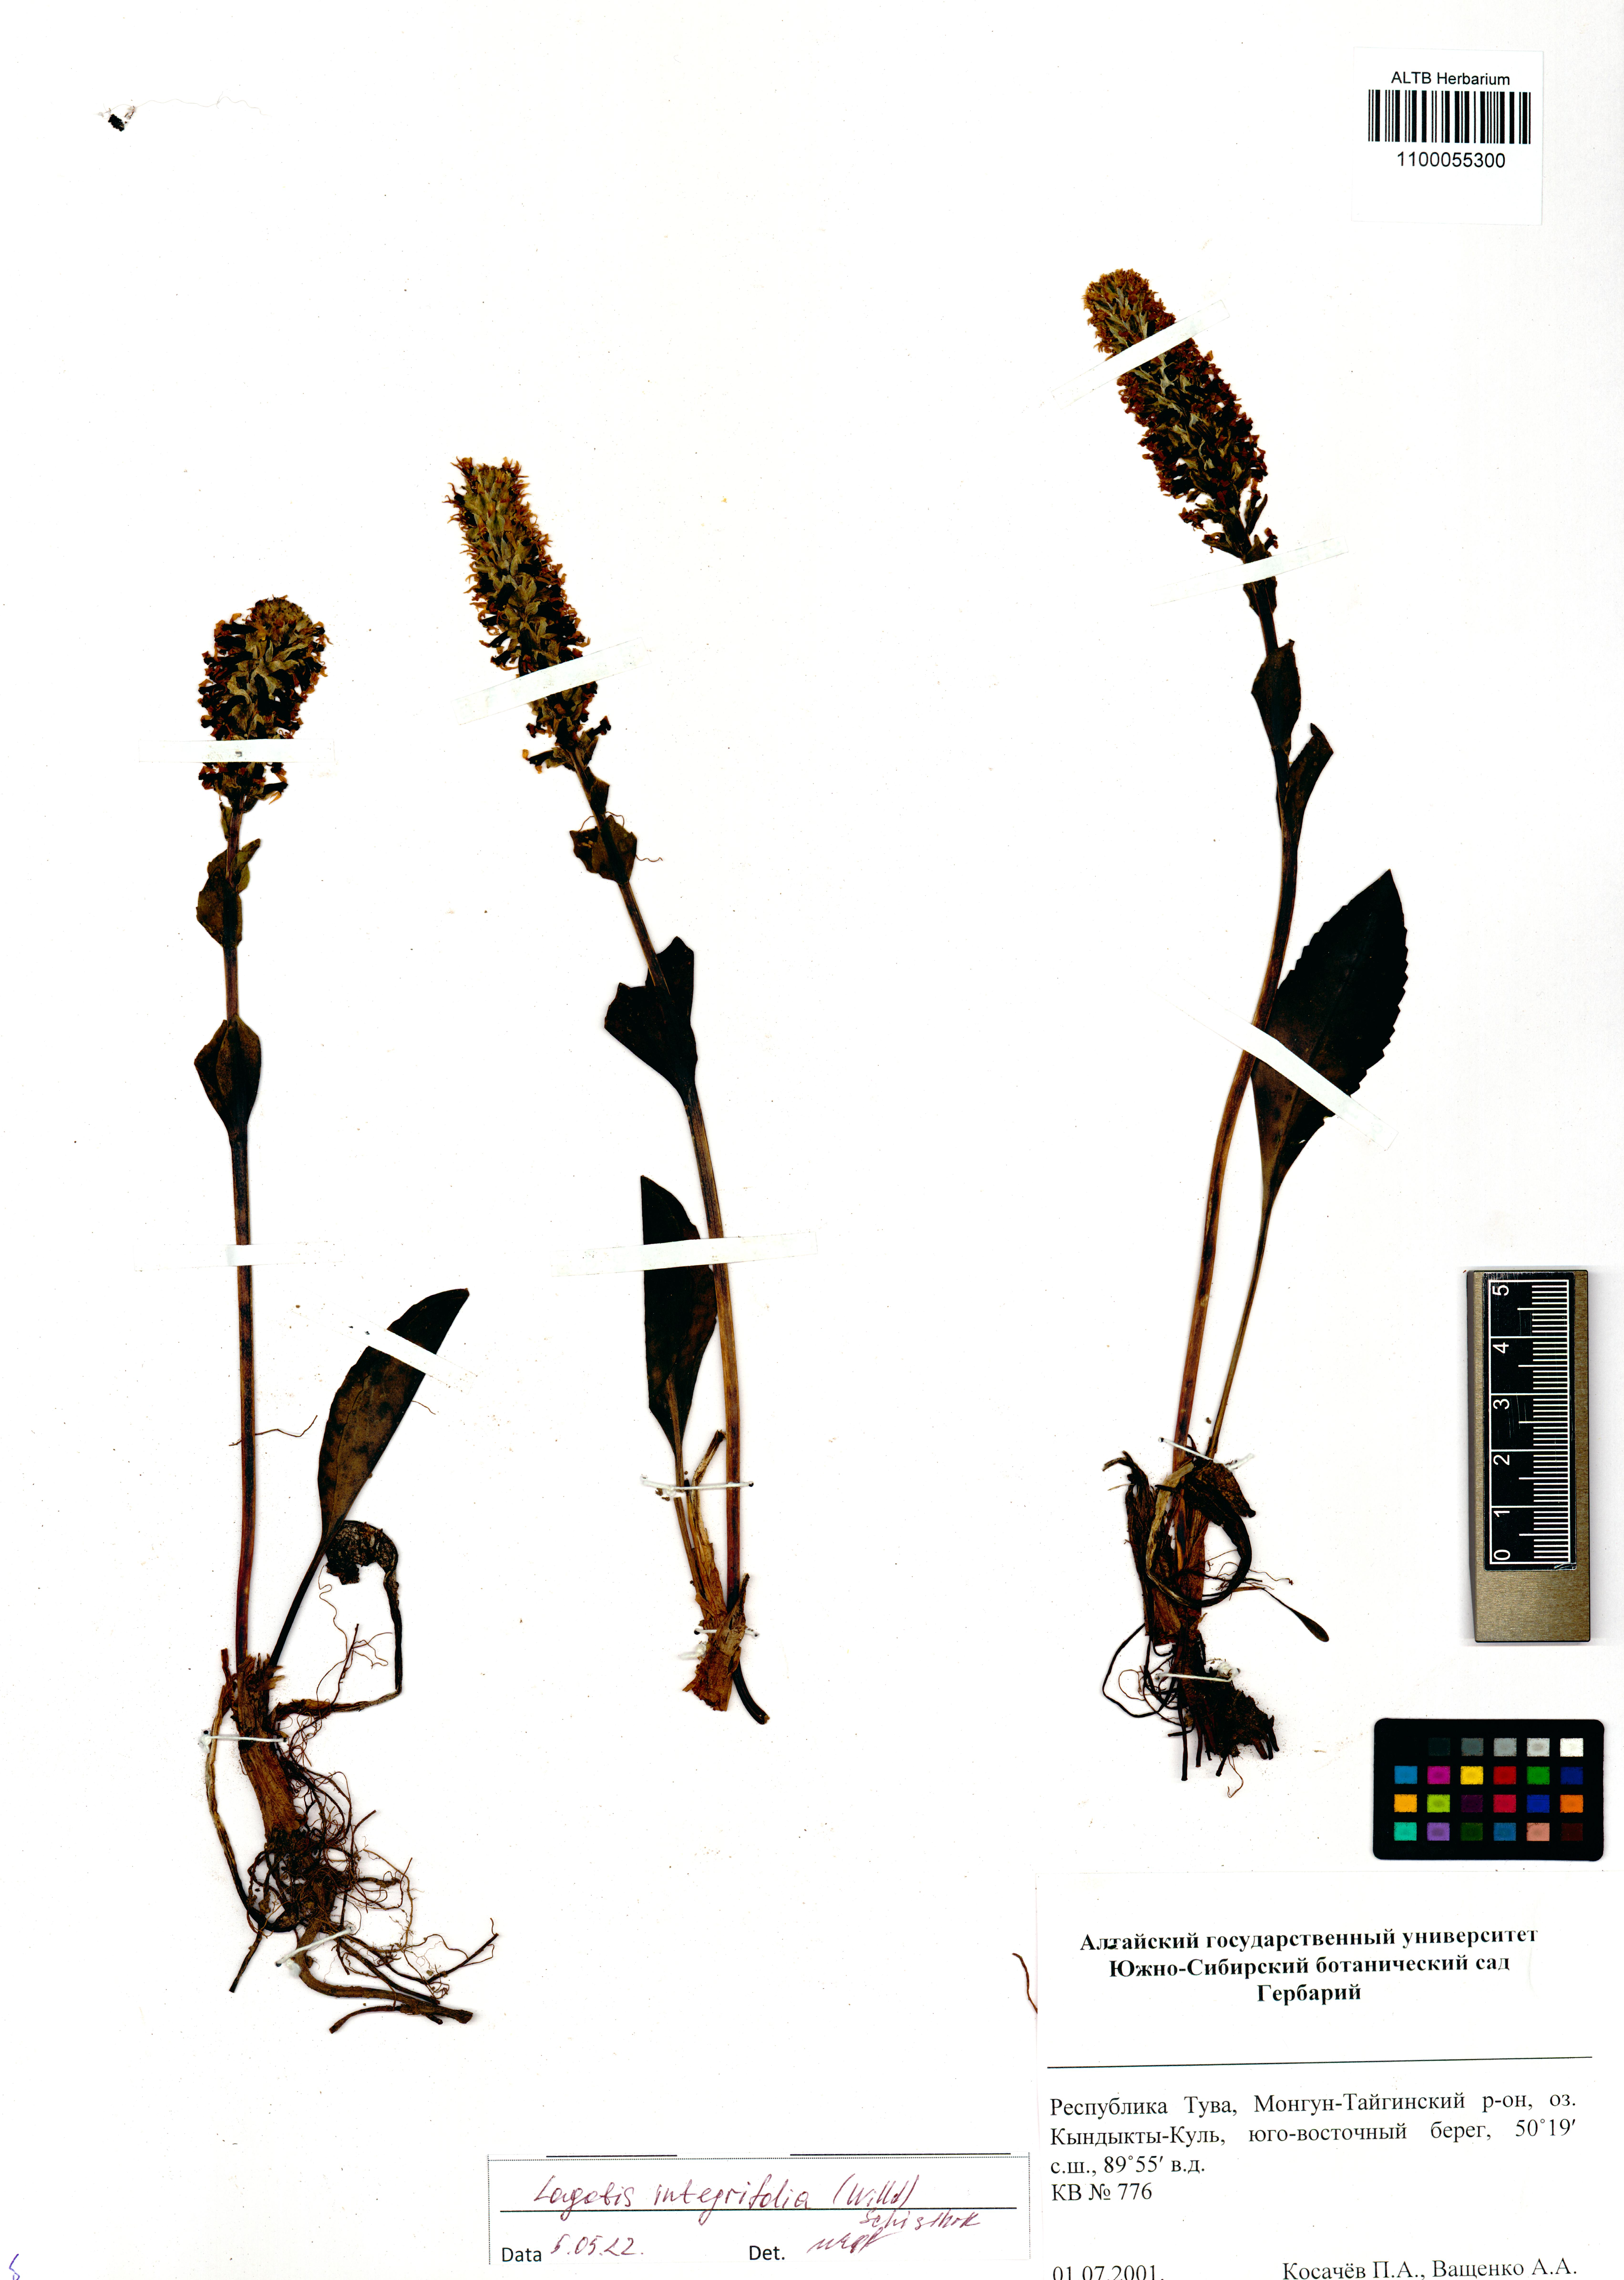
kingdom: Plantae
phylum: Tracheophyta
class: Magnoliopsida
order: Lamiales
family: Plantaginaceae
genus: Lagotis
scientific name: Lagotis integrifolia
